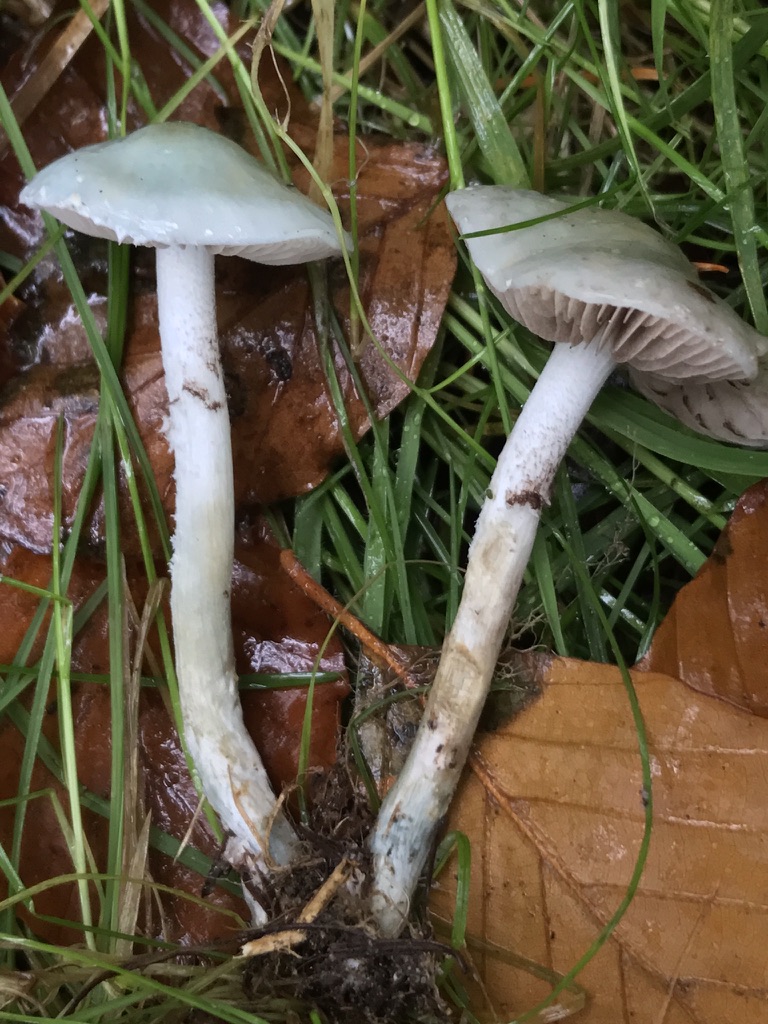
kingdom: Fungi
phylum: Basidiomycota
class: Agaricomycetes
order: Agaricales
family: Strophariaceae
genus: Stropharia
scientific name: Stropharia cyanea
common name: blågrøn bredblad
